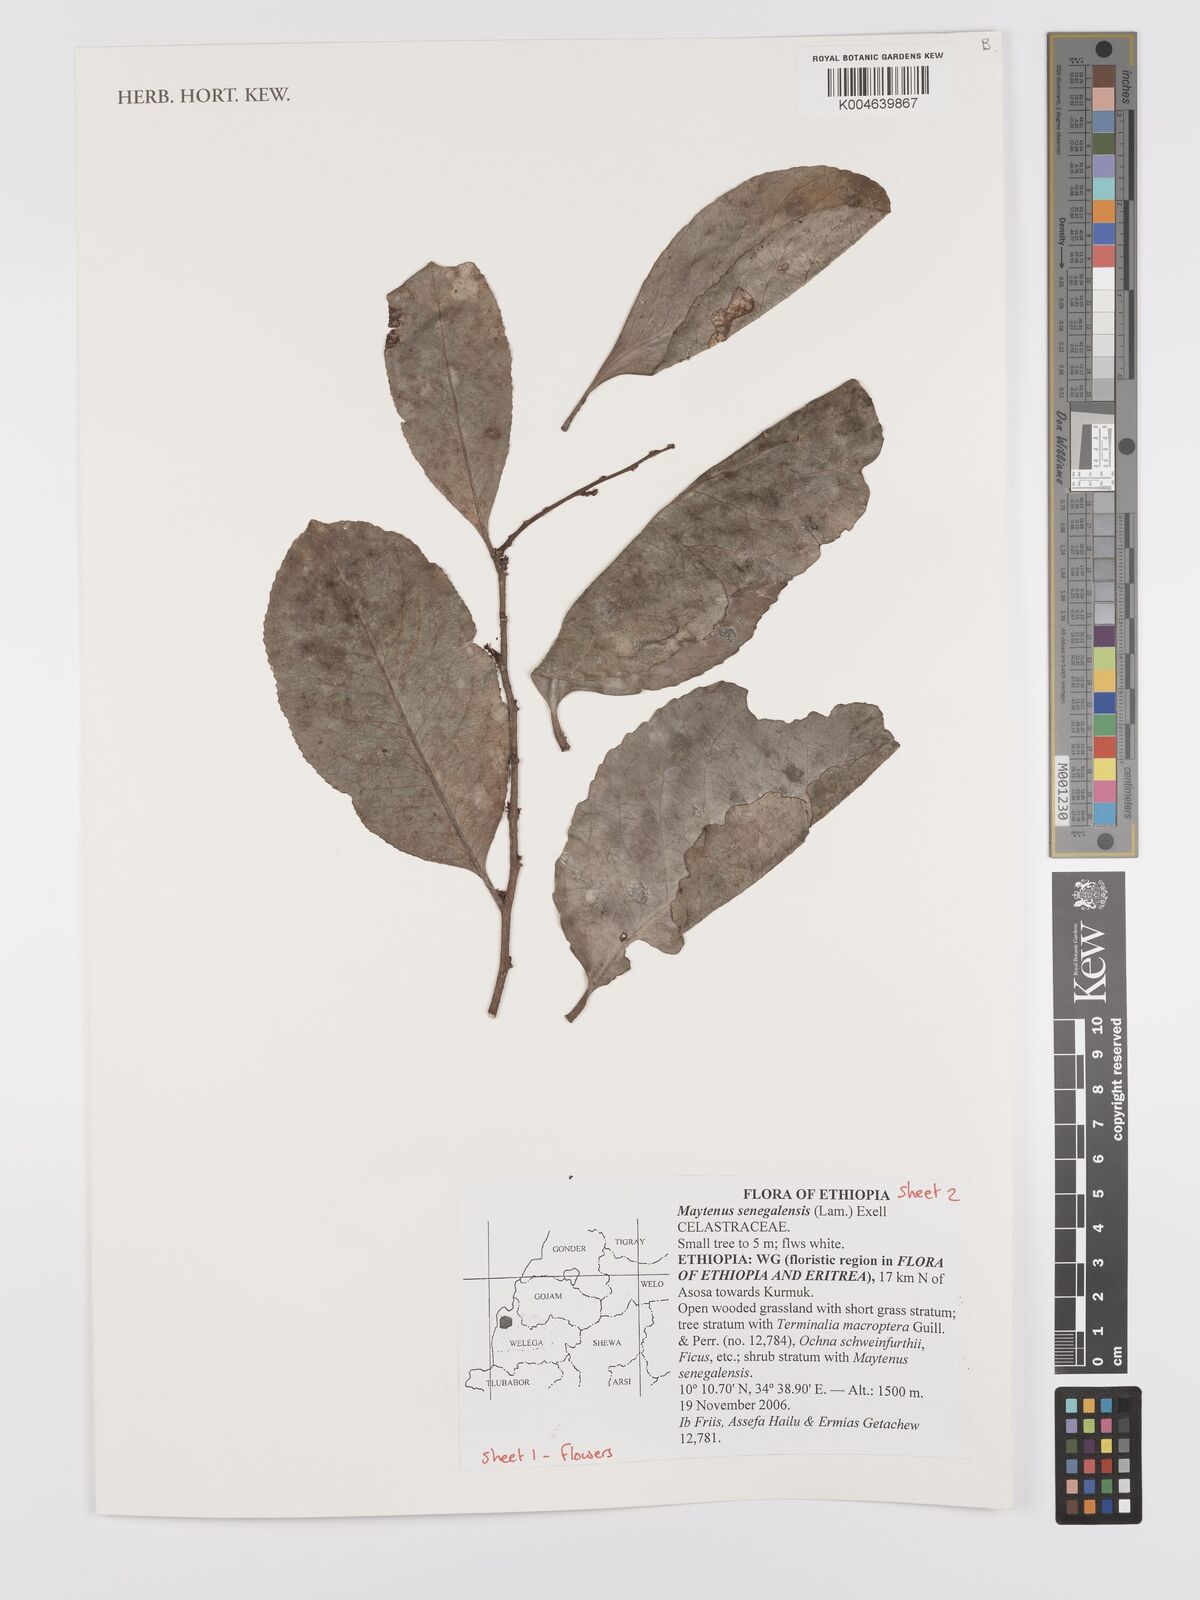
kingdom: Plantae
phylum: Tracheophyta
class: Magnoliopsida
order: Celastrales
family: Celastraceae
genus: Gymnosporia
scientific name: Gymnosporia senegalensis
